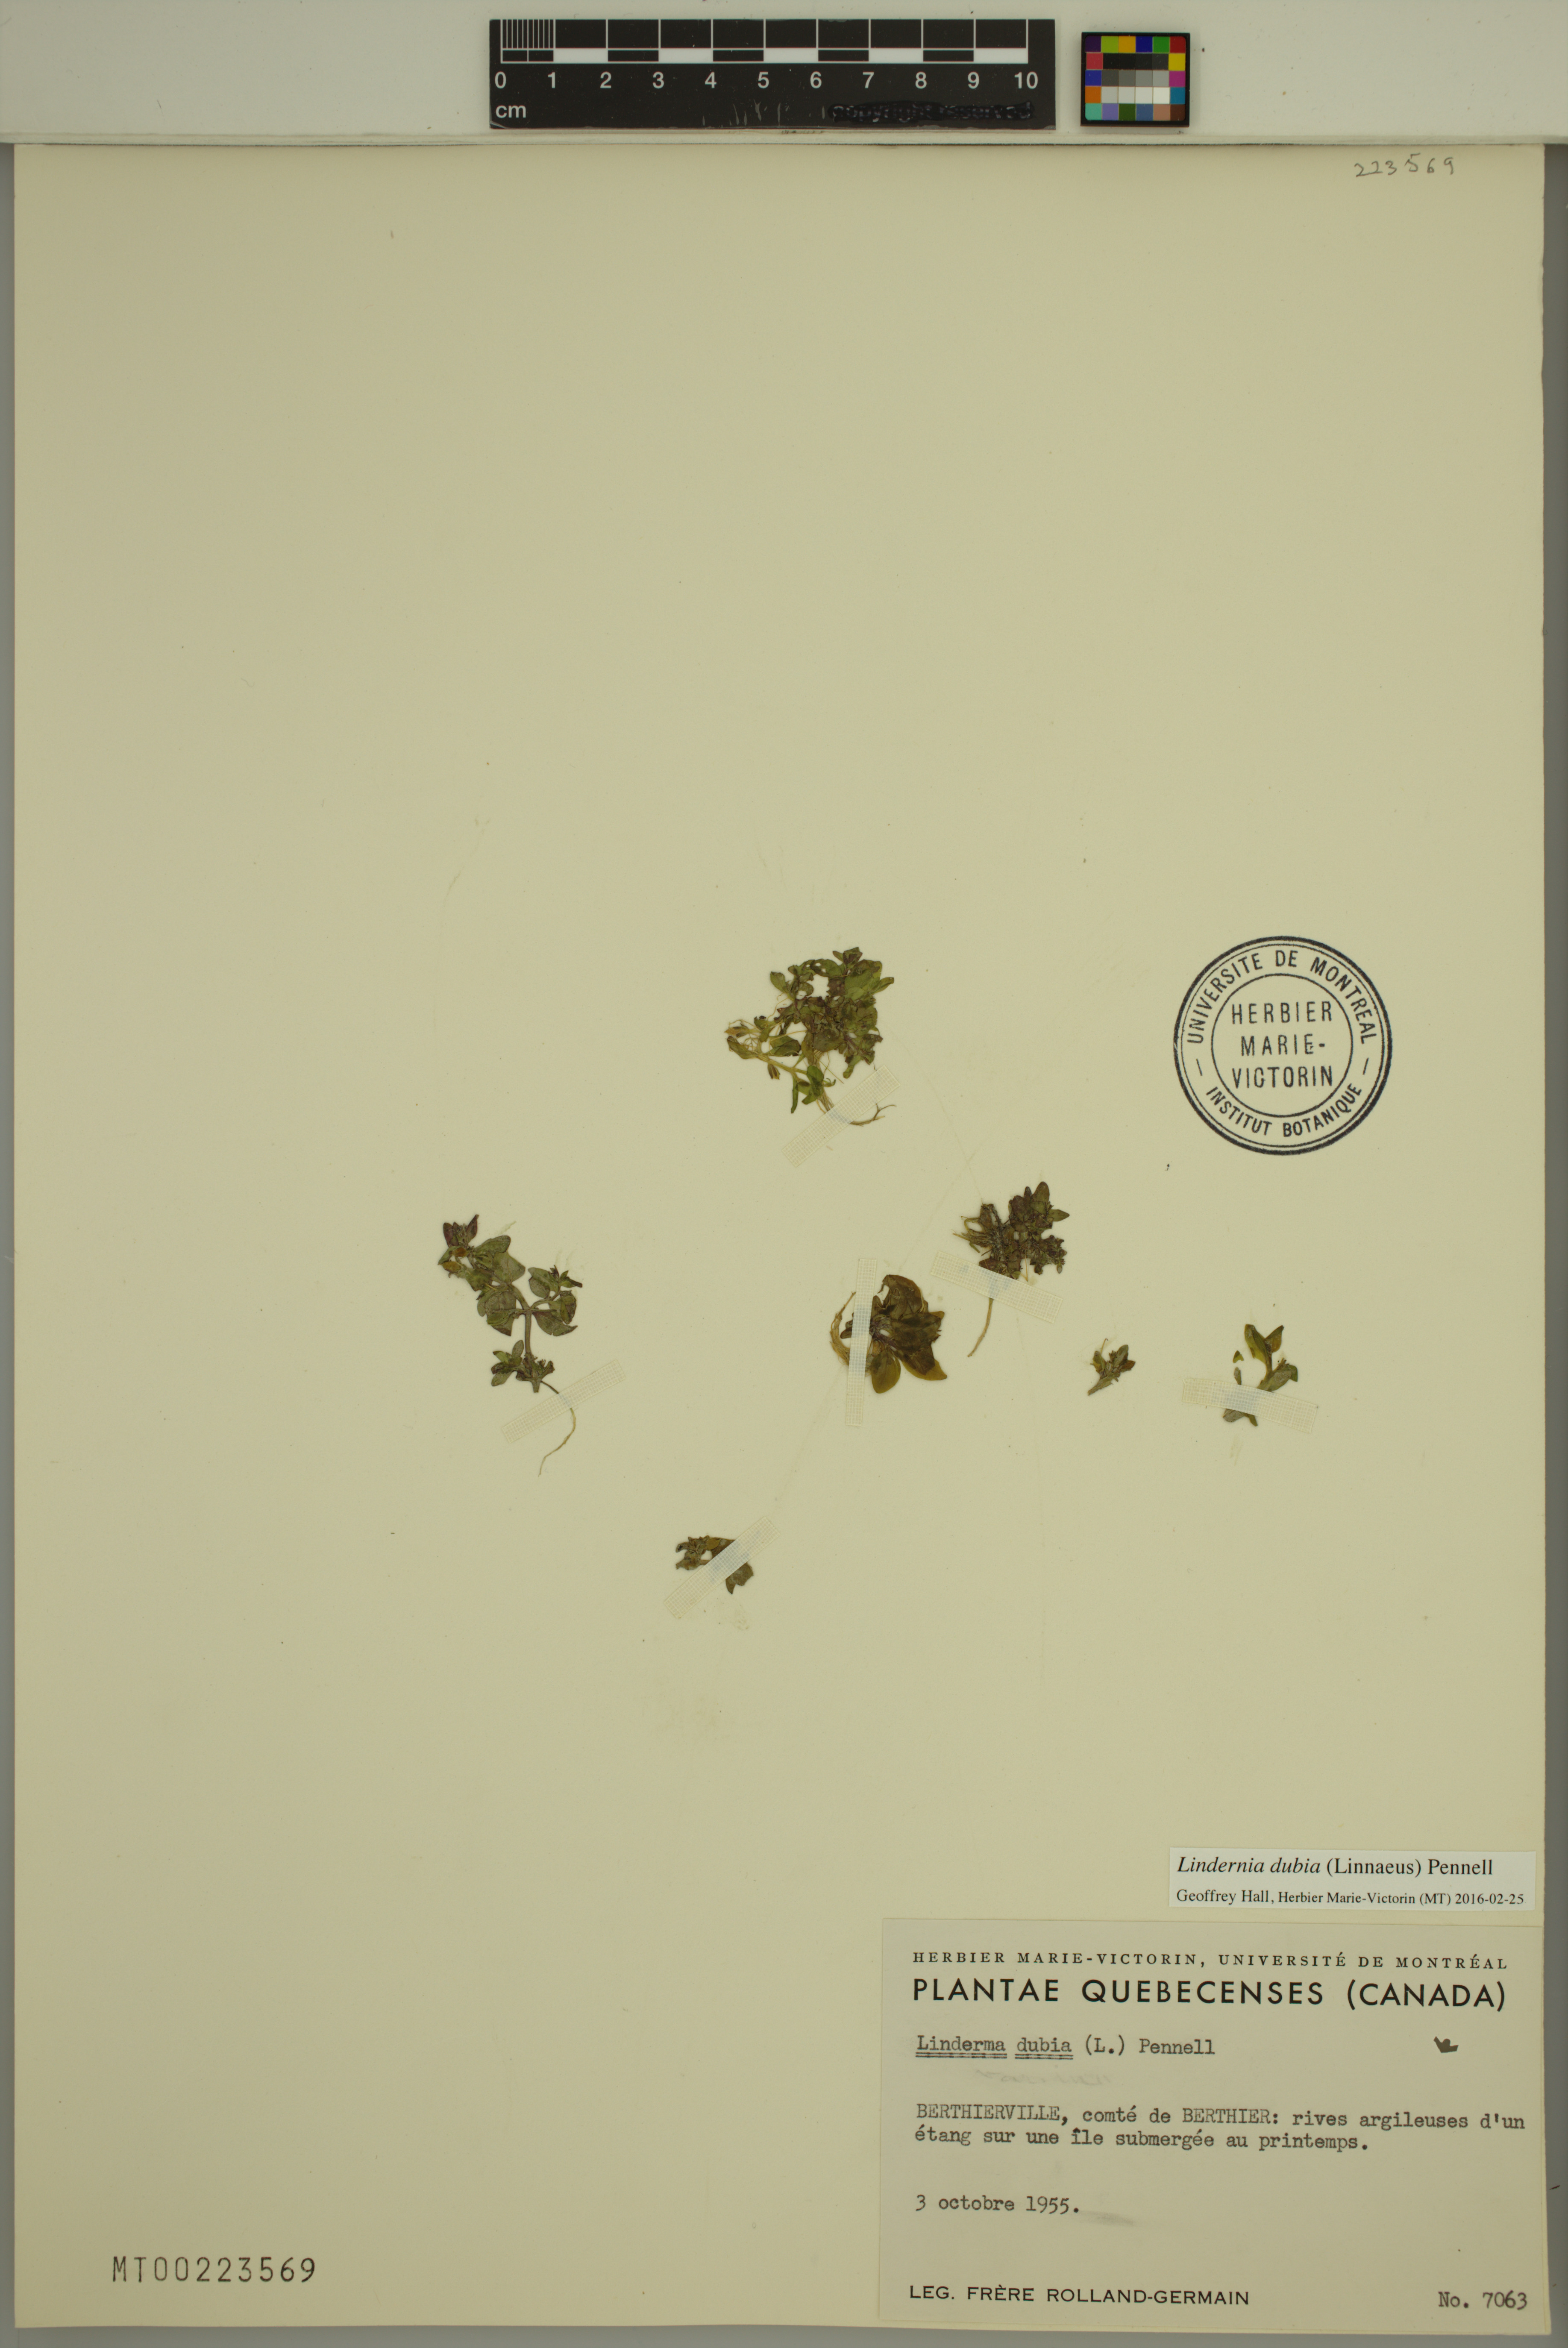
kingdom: Plantae
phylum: Tracheophyta
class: Magnoliopsida
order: Lamiales
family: Linderniaceae
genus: Lindernia
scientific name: Lindernia dubia
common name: Annual false pimpernel
